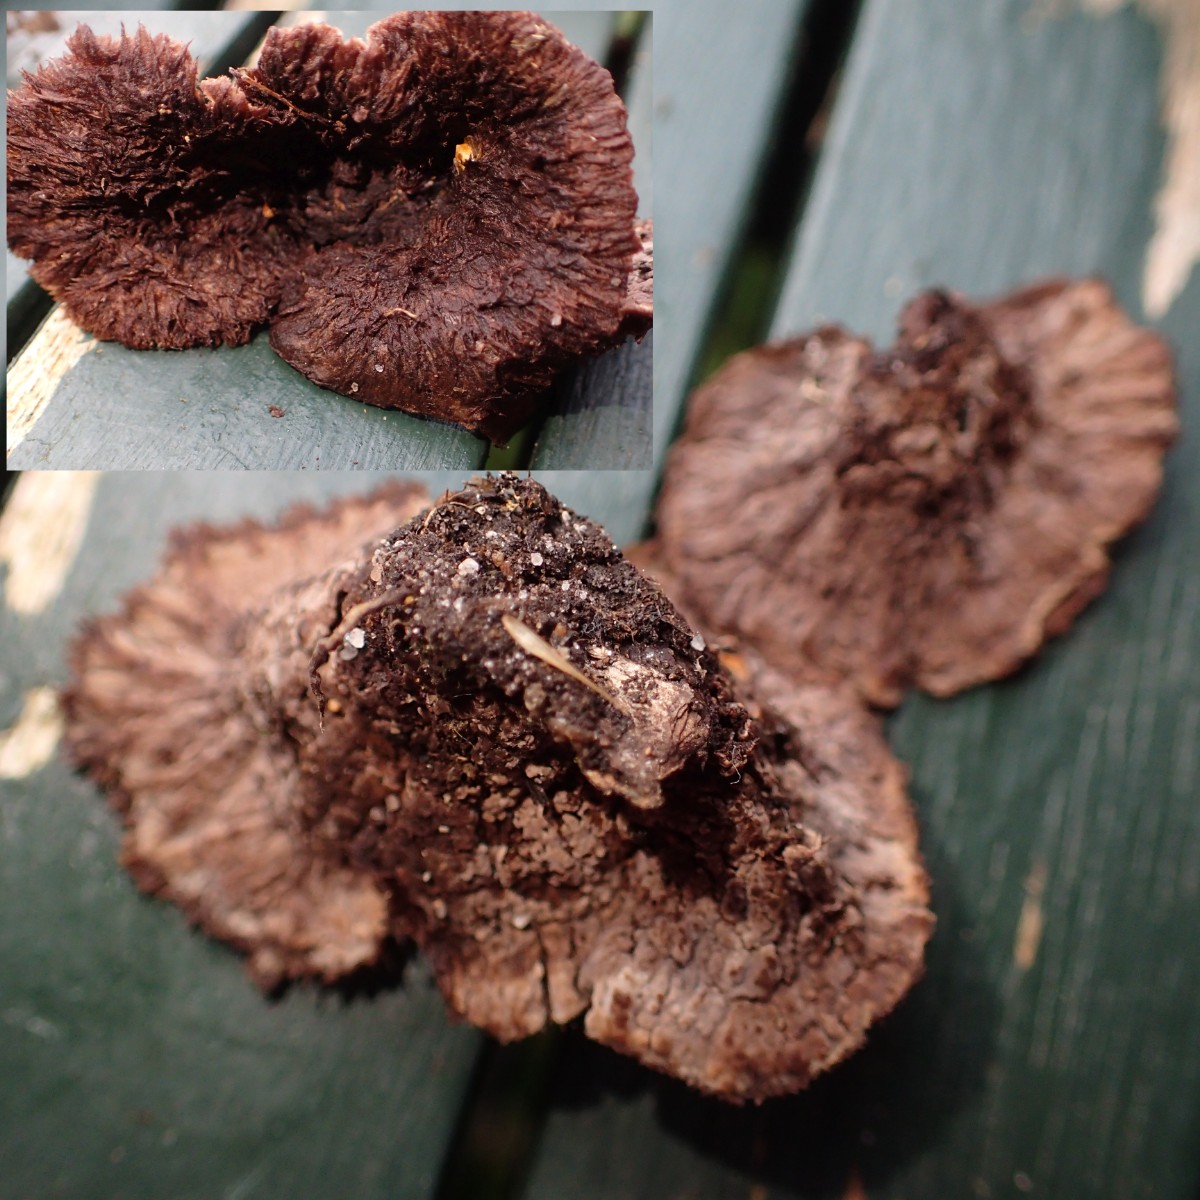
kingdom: Fungi
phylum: Basidiomycota
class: Agaricomycetes
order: Thelephorales
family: Thelephoraceae
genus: Thelephora
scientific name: Thelephora terrestris
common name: fliget frynsesvamp
